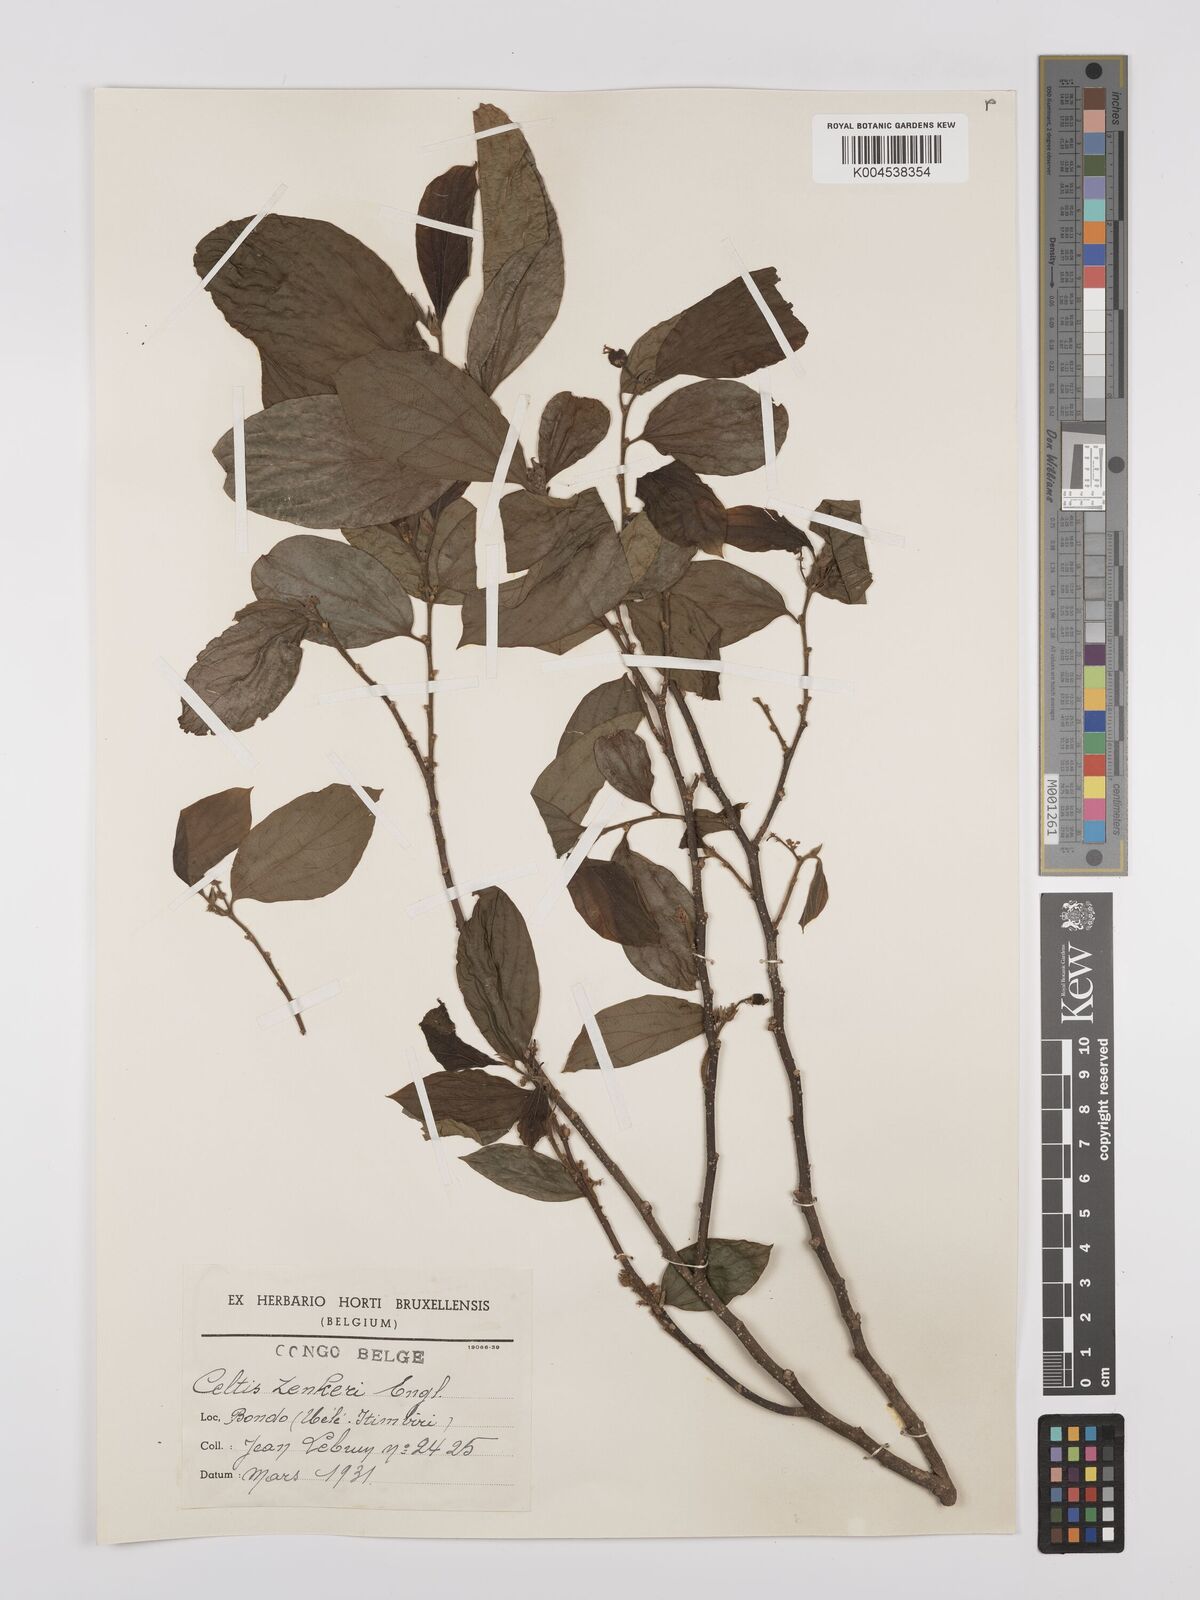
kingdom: Plantae
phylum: Tracheophyta
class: Magnoliopsida
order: Rosales
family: Cannabaceae
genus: Celtis
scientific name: Celtis zenkeri
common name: African celtis
